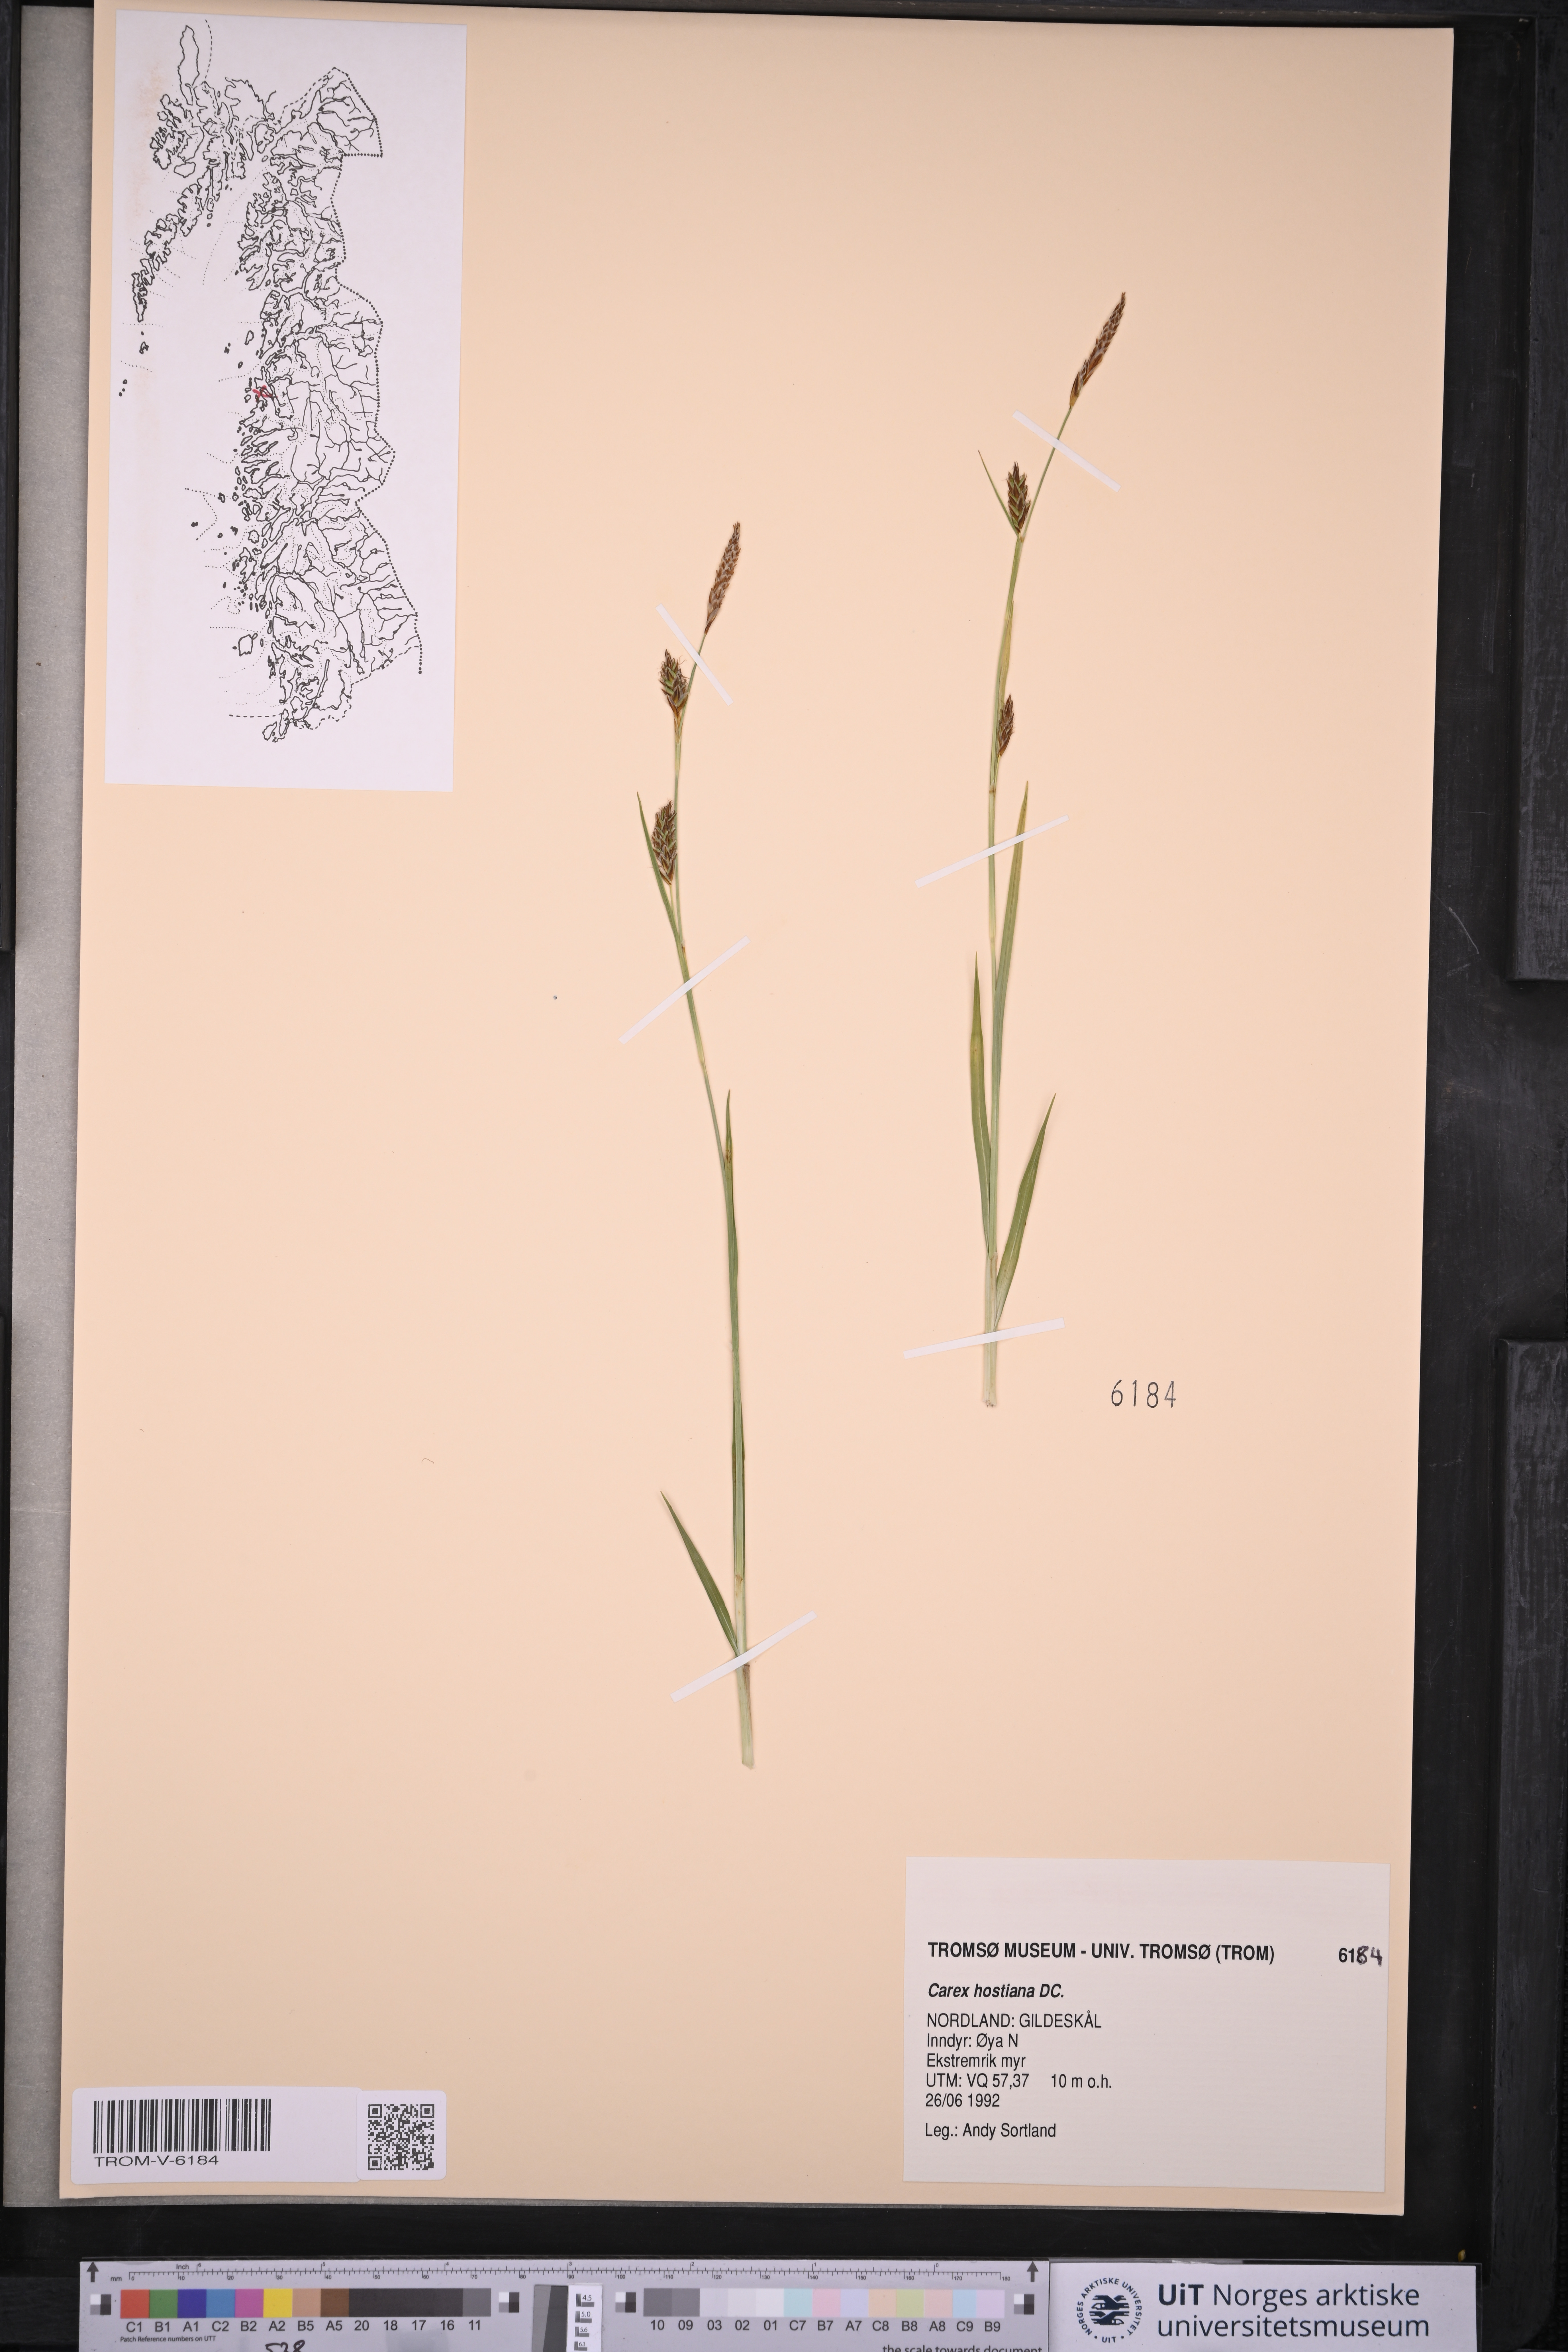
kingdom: Plantae
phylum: Tracheophyta
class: Liliopsida
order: Poales
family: Cyperaceae
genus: Carex
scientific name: Carex hostiana
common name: Tawny sedge
